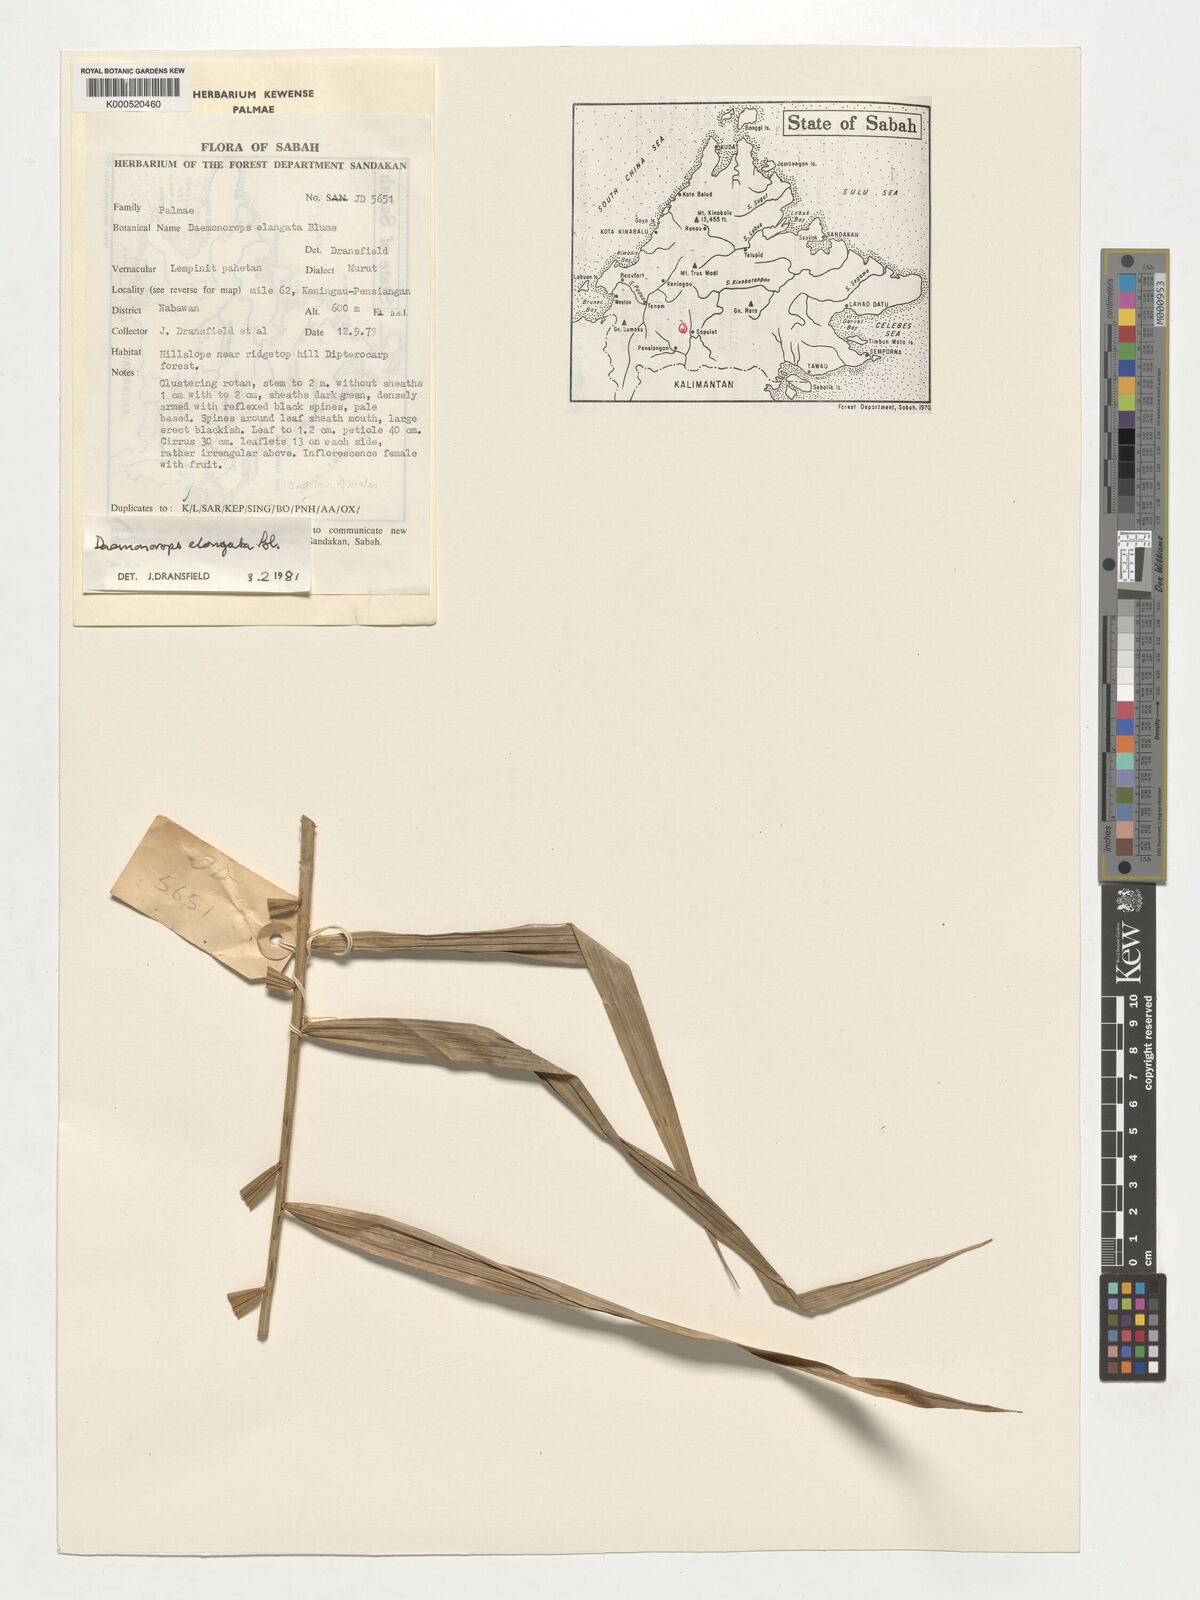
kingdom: Plantae
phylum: Tracheophyta
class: Liliopsida
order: Arecales
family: Arecaceae
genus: Calamus
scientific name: Calamus oblongus
